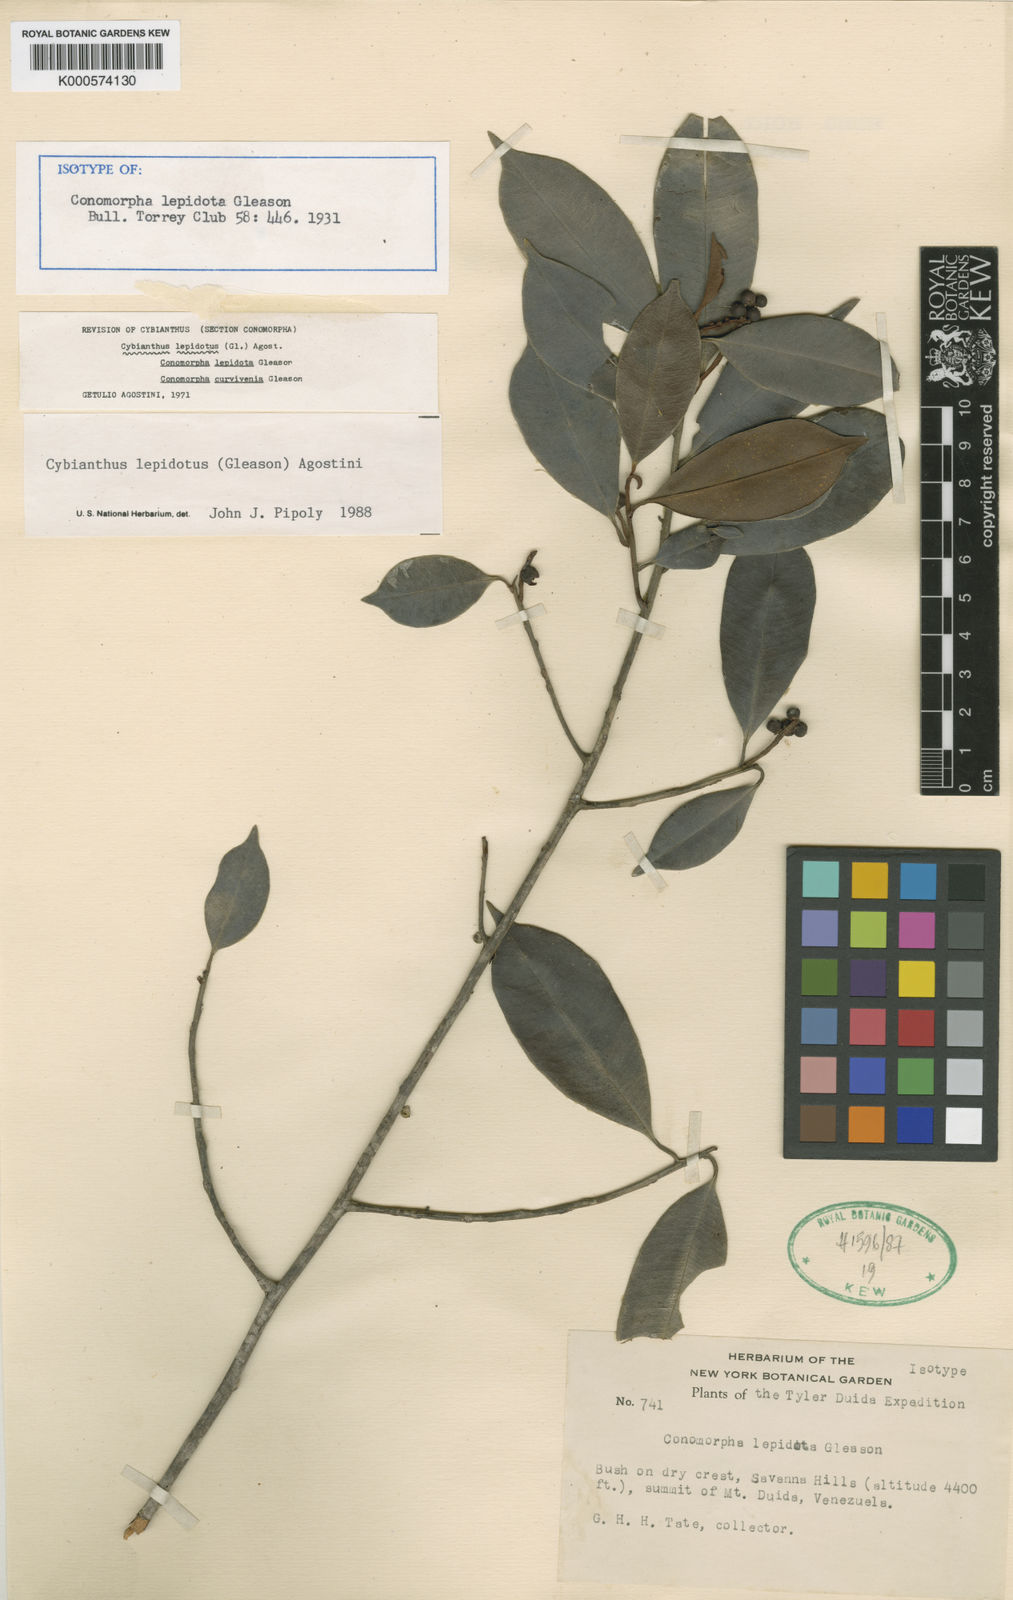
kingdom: Plantae
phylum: Tracheophyta
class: Magnoliopsida
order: Ericales
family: Primulaceae
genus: Cybianthus
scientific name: Cybianthus lepidotus
